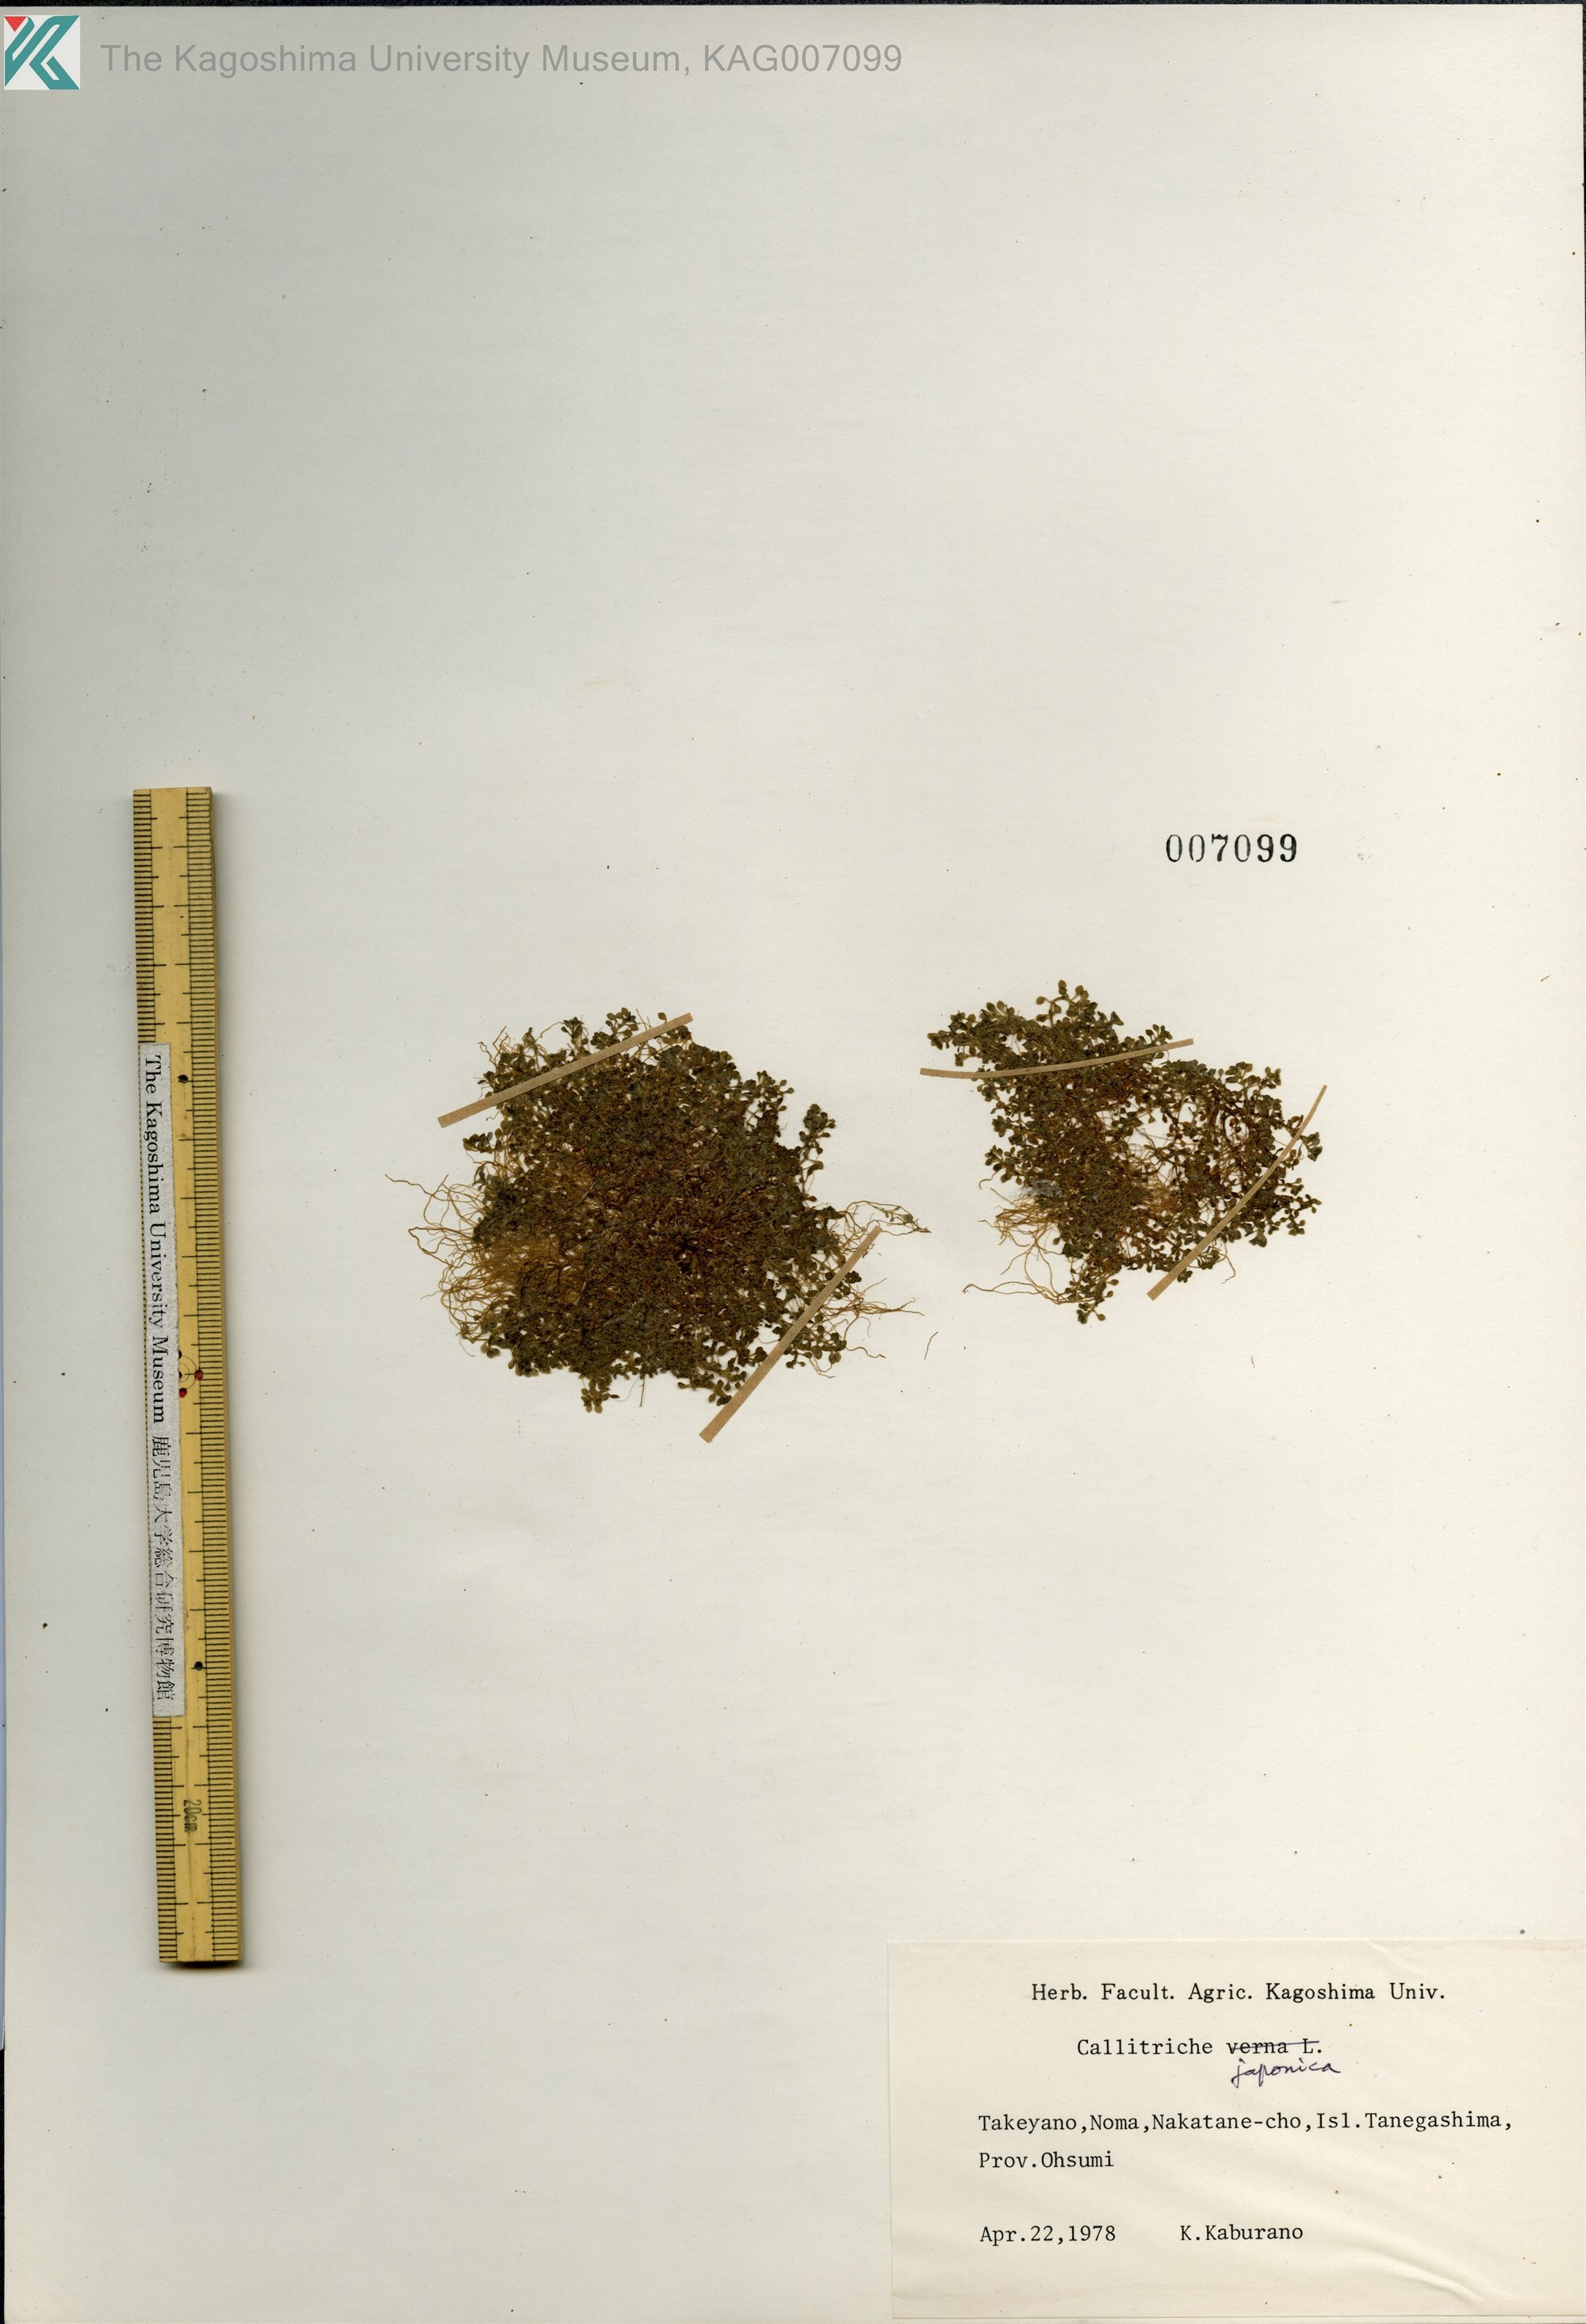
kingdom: Plantae
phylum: Tracheophyta
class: Magnoliopsida
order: Lamiales
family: Plantaginaceae
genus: Callitriche
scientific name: Callitriche japonica
